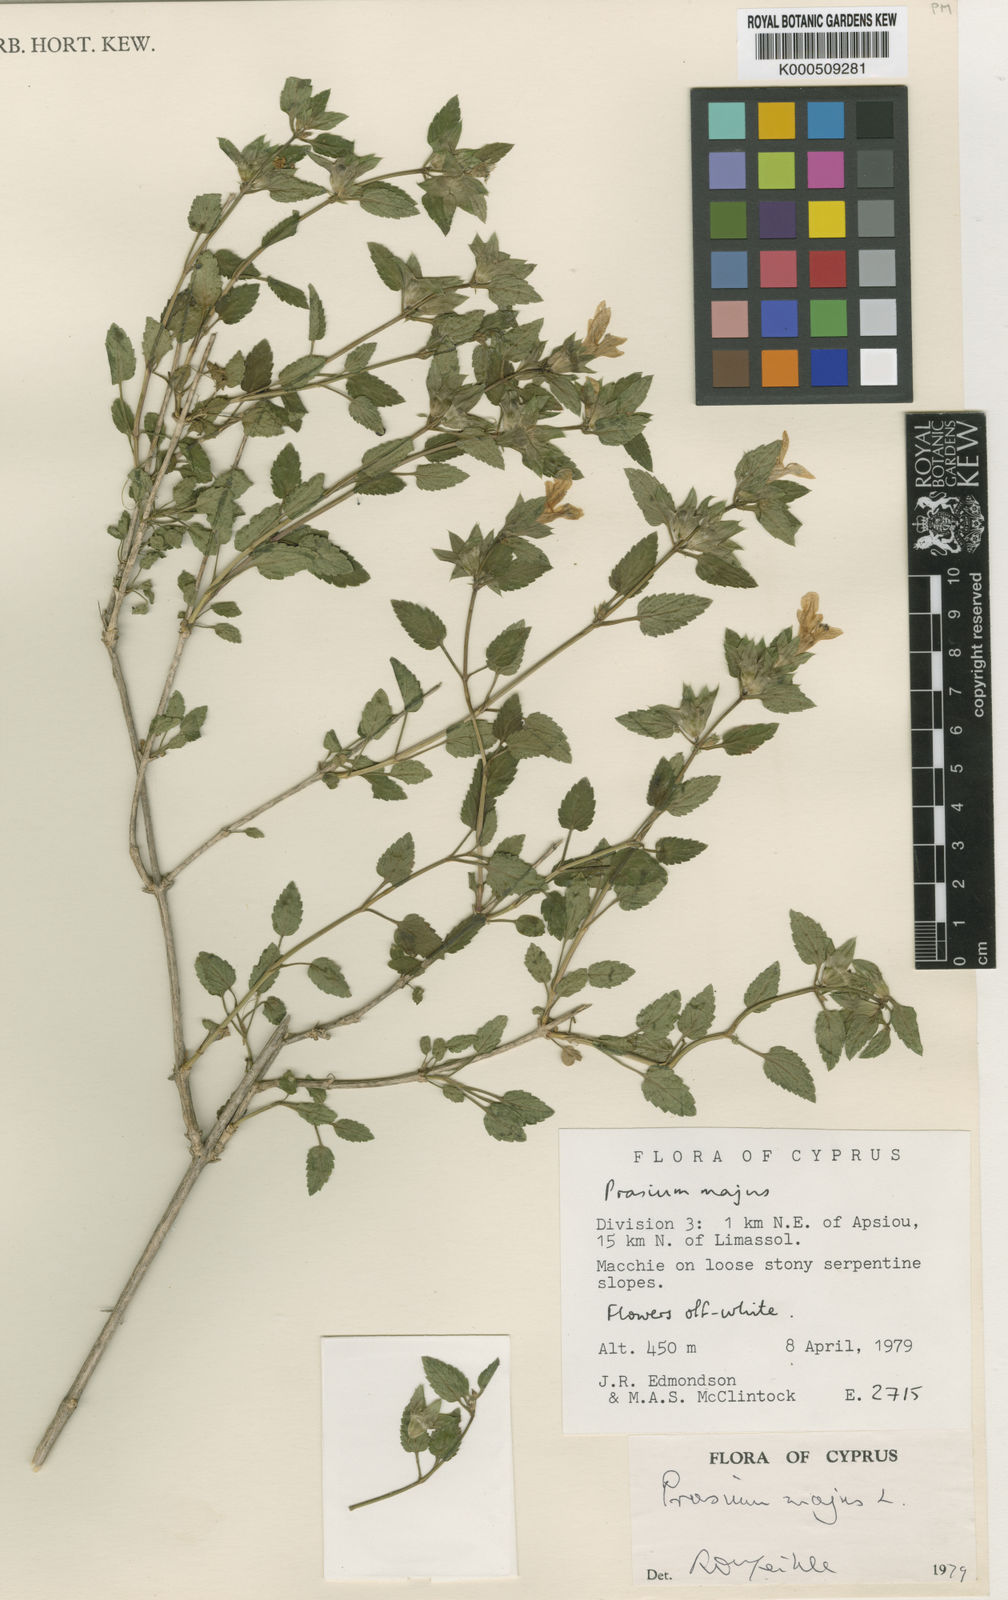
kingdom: Plantae
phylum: Tracheophyta
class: Magnoliopsida
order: Lamiales
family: Lamiaceae
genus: Prasium
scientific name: Prasium majus
